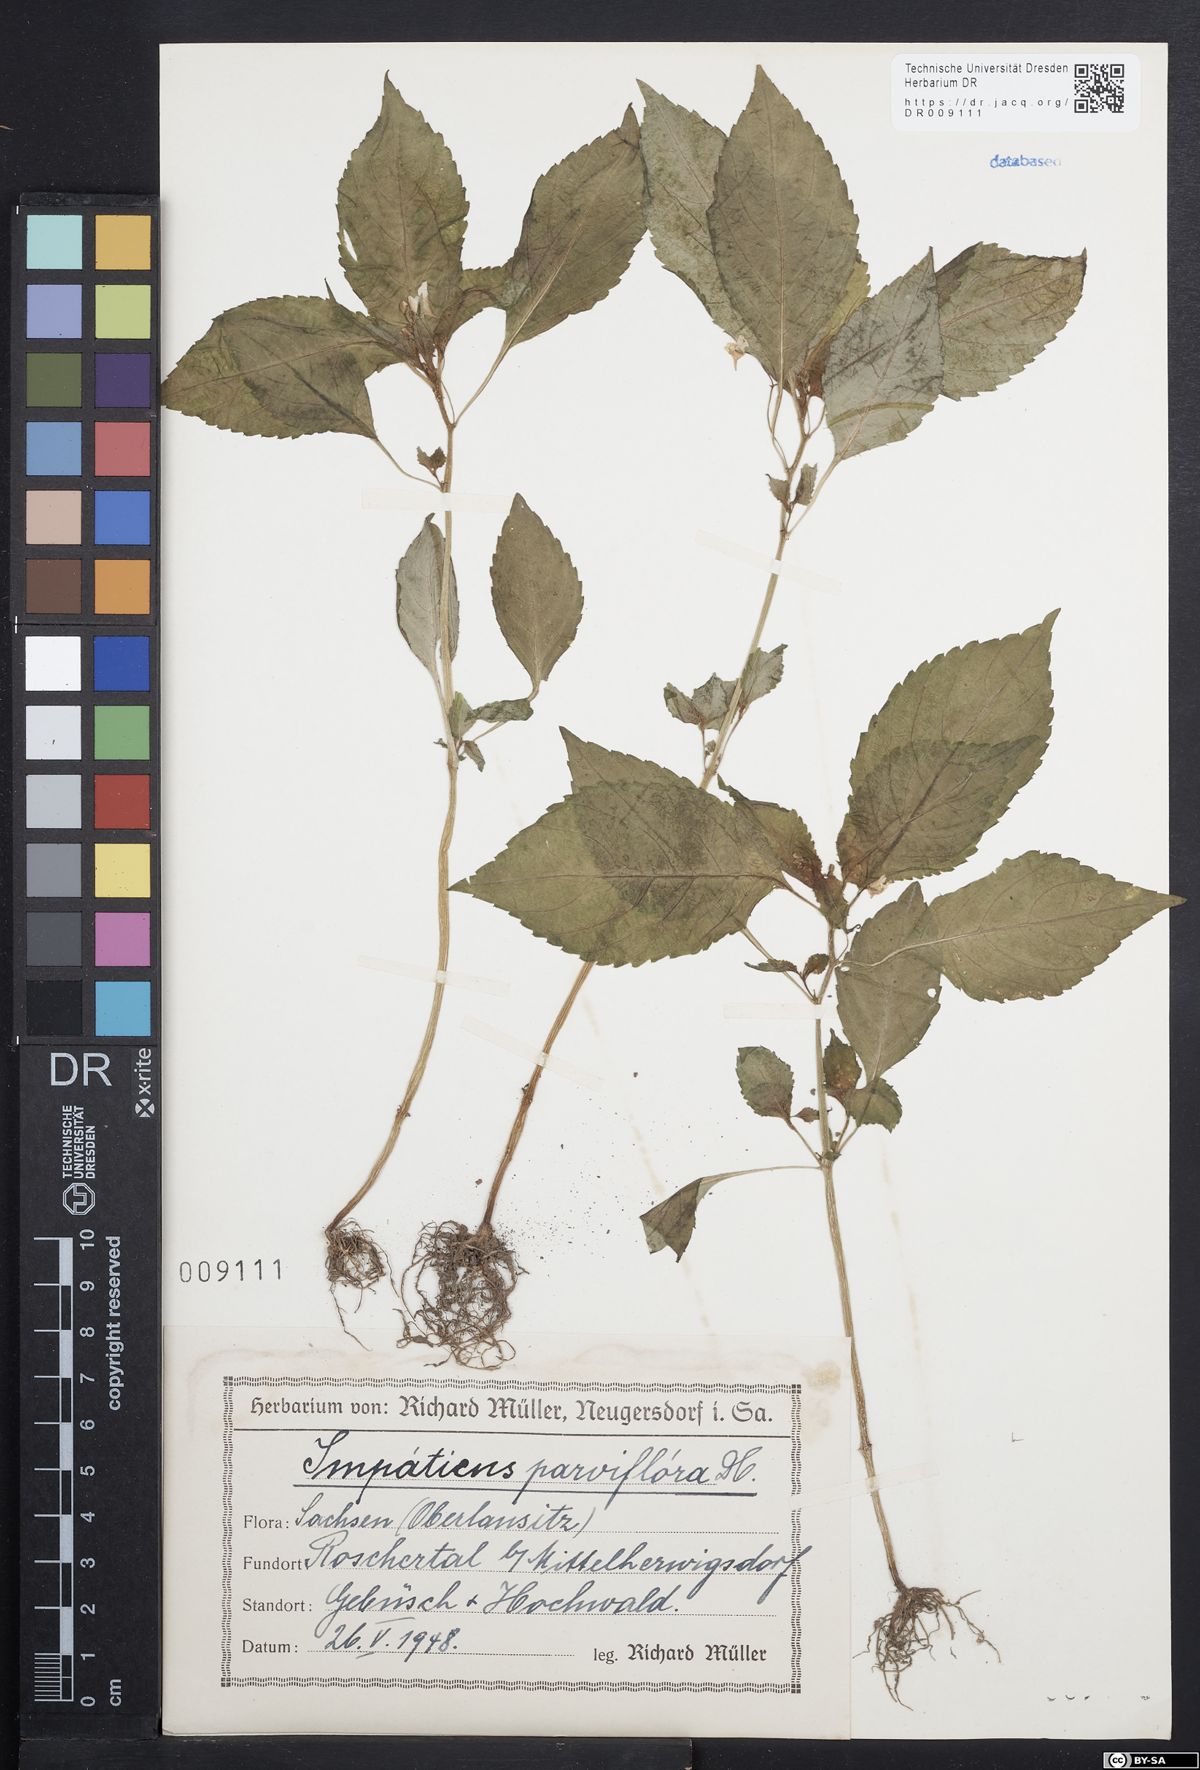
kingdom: Plantae
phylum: Tracheophyta
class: Magnoliopsida
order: Ericales
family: Balsaminaceae
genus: Impatiens
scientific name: Impatiens parviflora
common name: Small balsam
